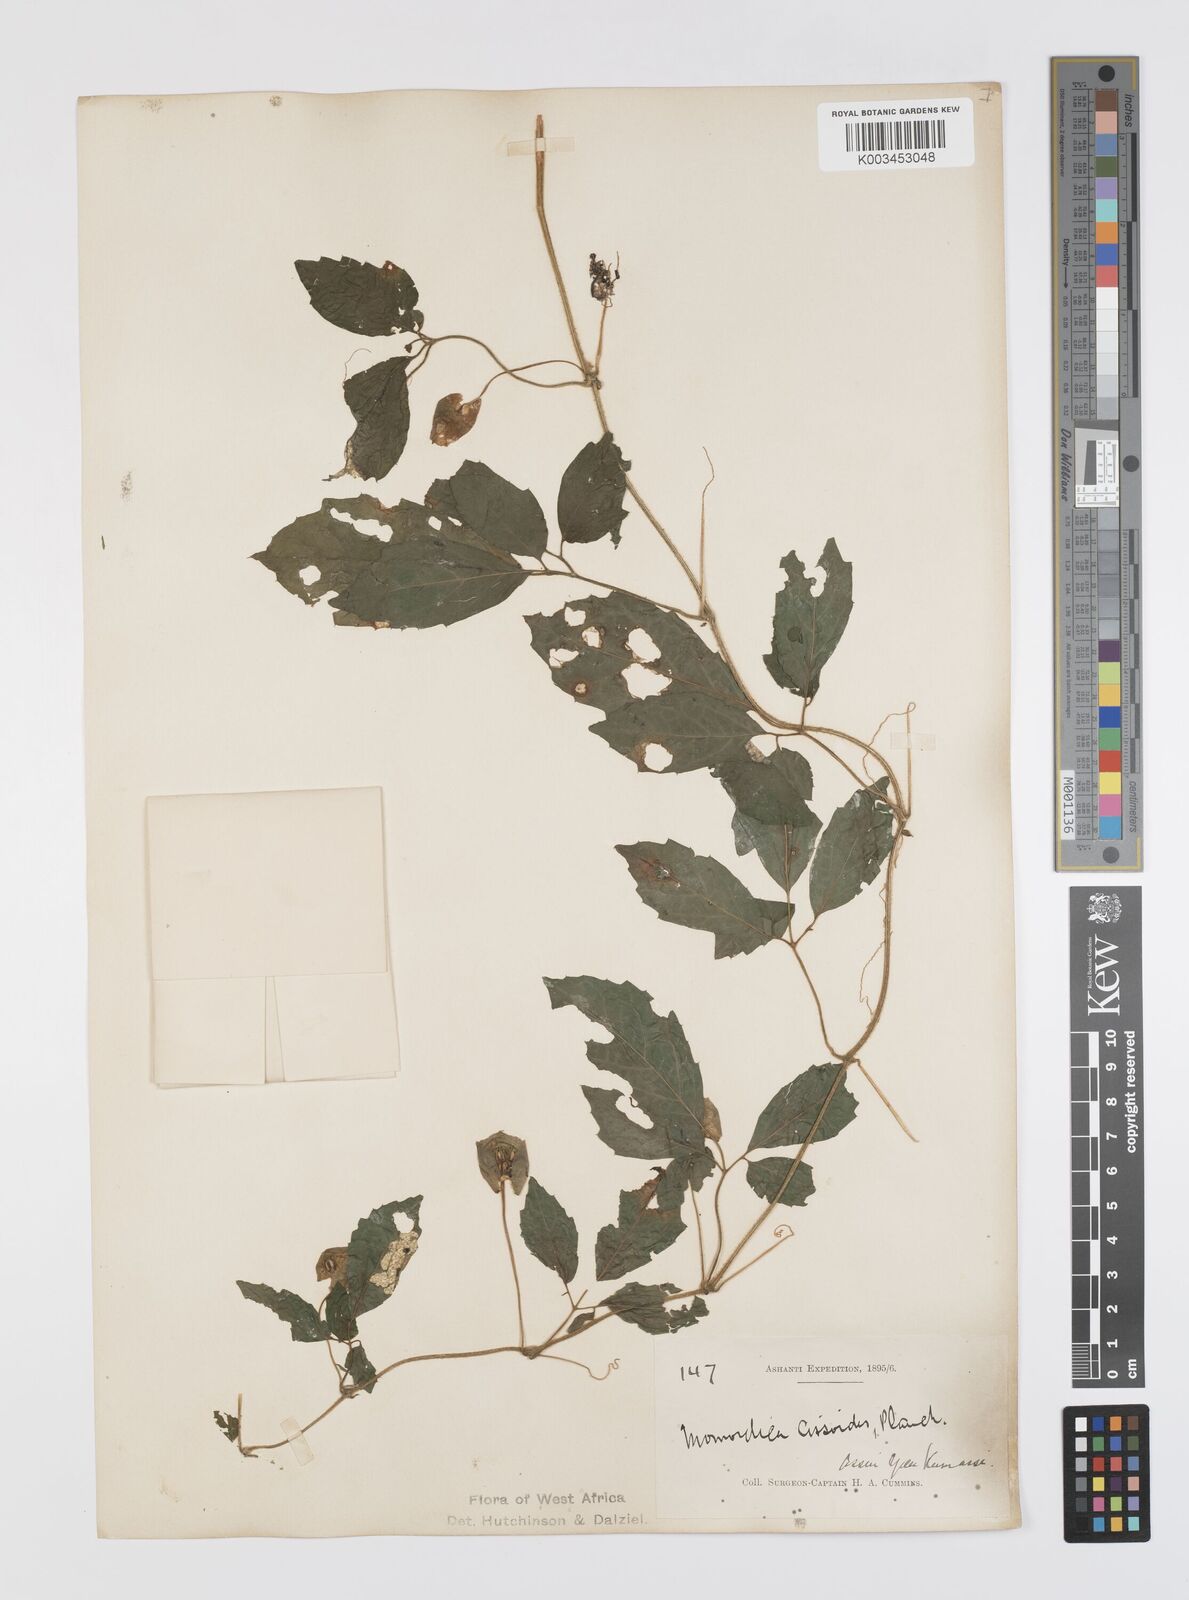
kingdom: Plantae
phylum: Tracheophyta
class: Magnoliopsida
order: Cucurbitales
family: Cucurbitaceae
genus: Momordica
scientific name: Momordica cissoides
